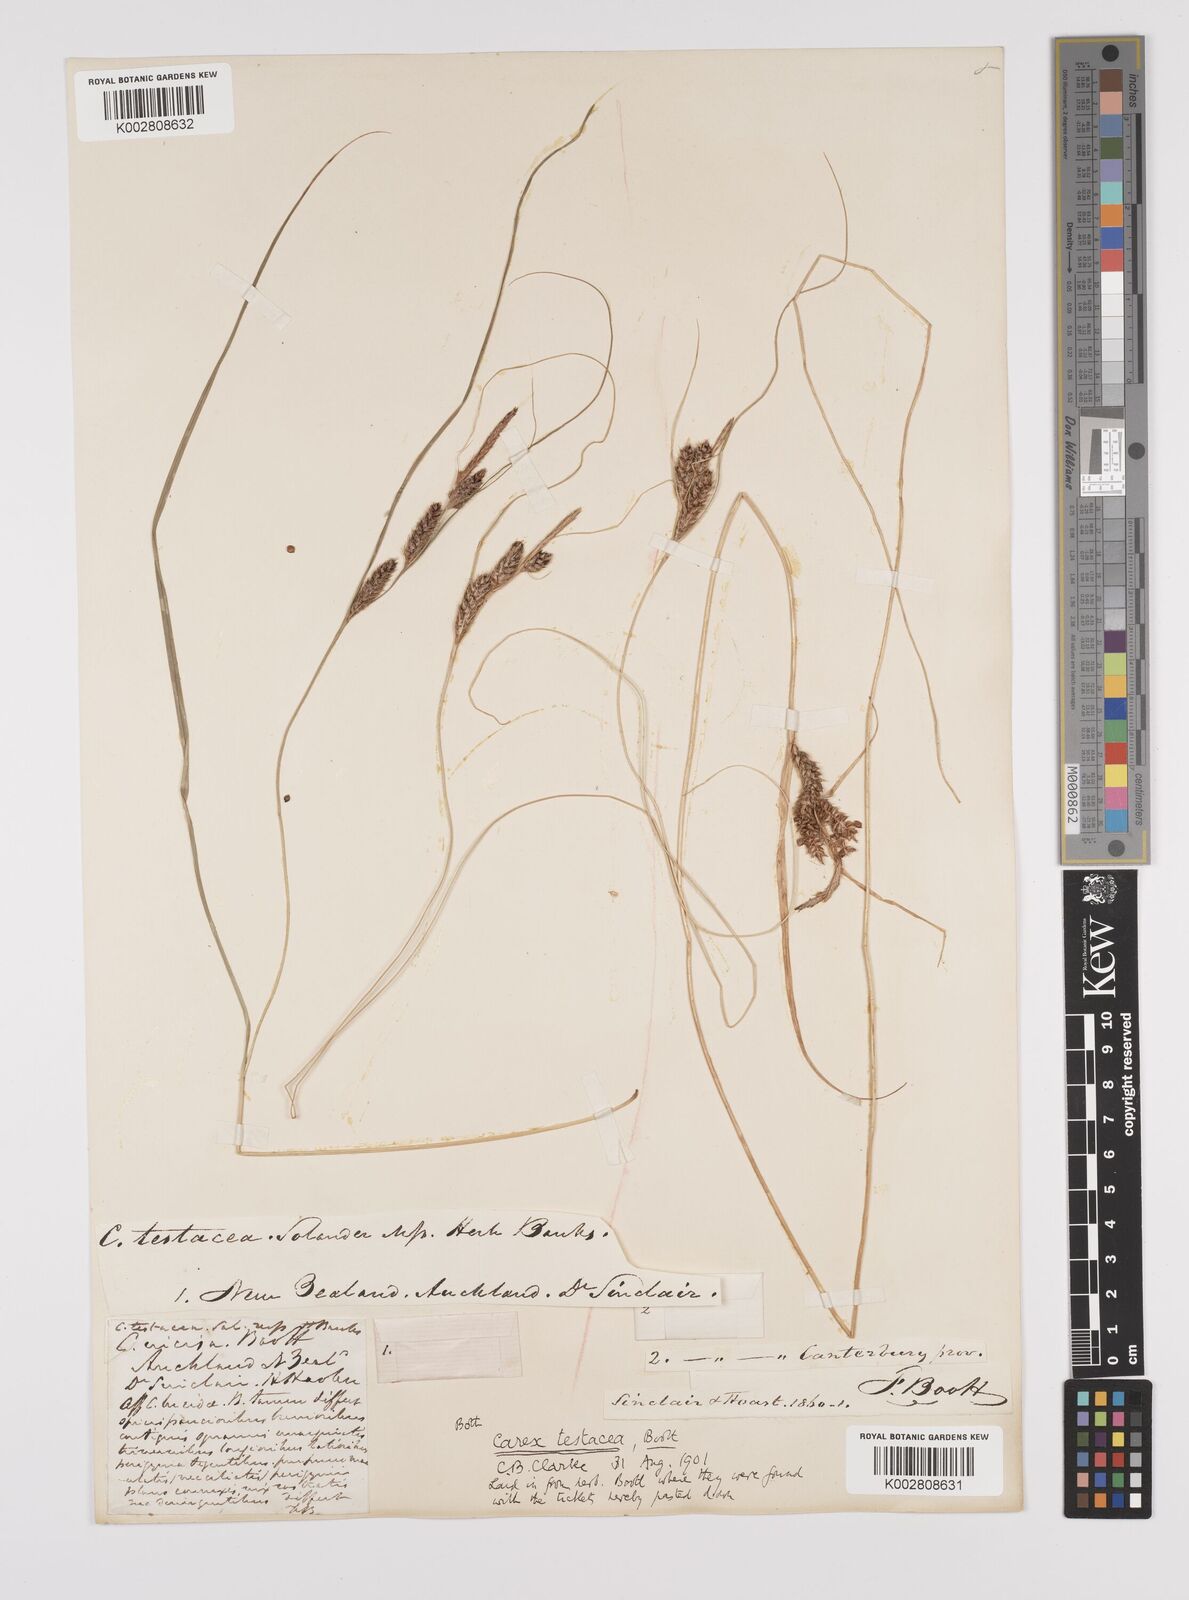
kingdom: Plantae
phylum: Tracheophyta
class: Liliopsida
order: Poales
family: Cyperaceae
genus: Carex
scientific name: Carex testacea
